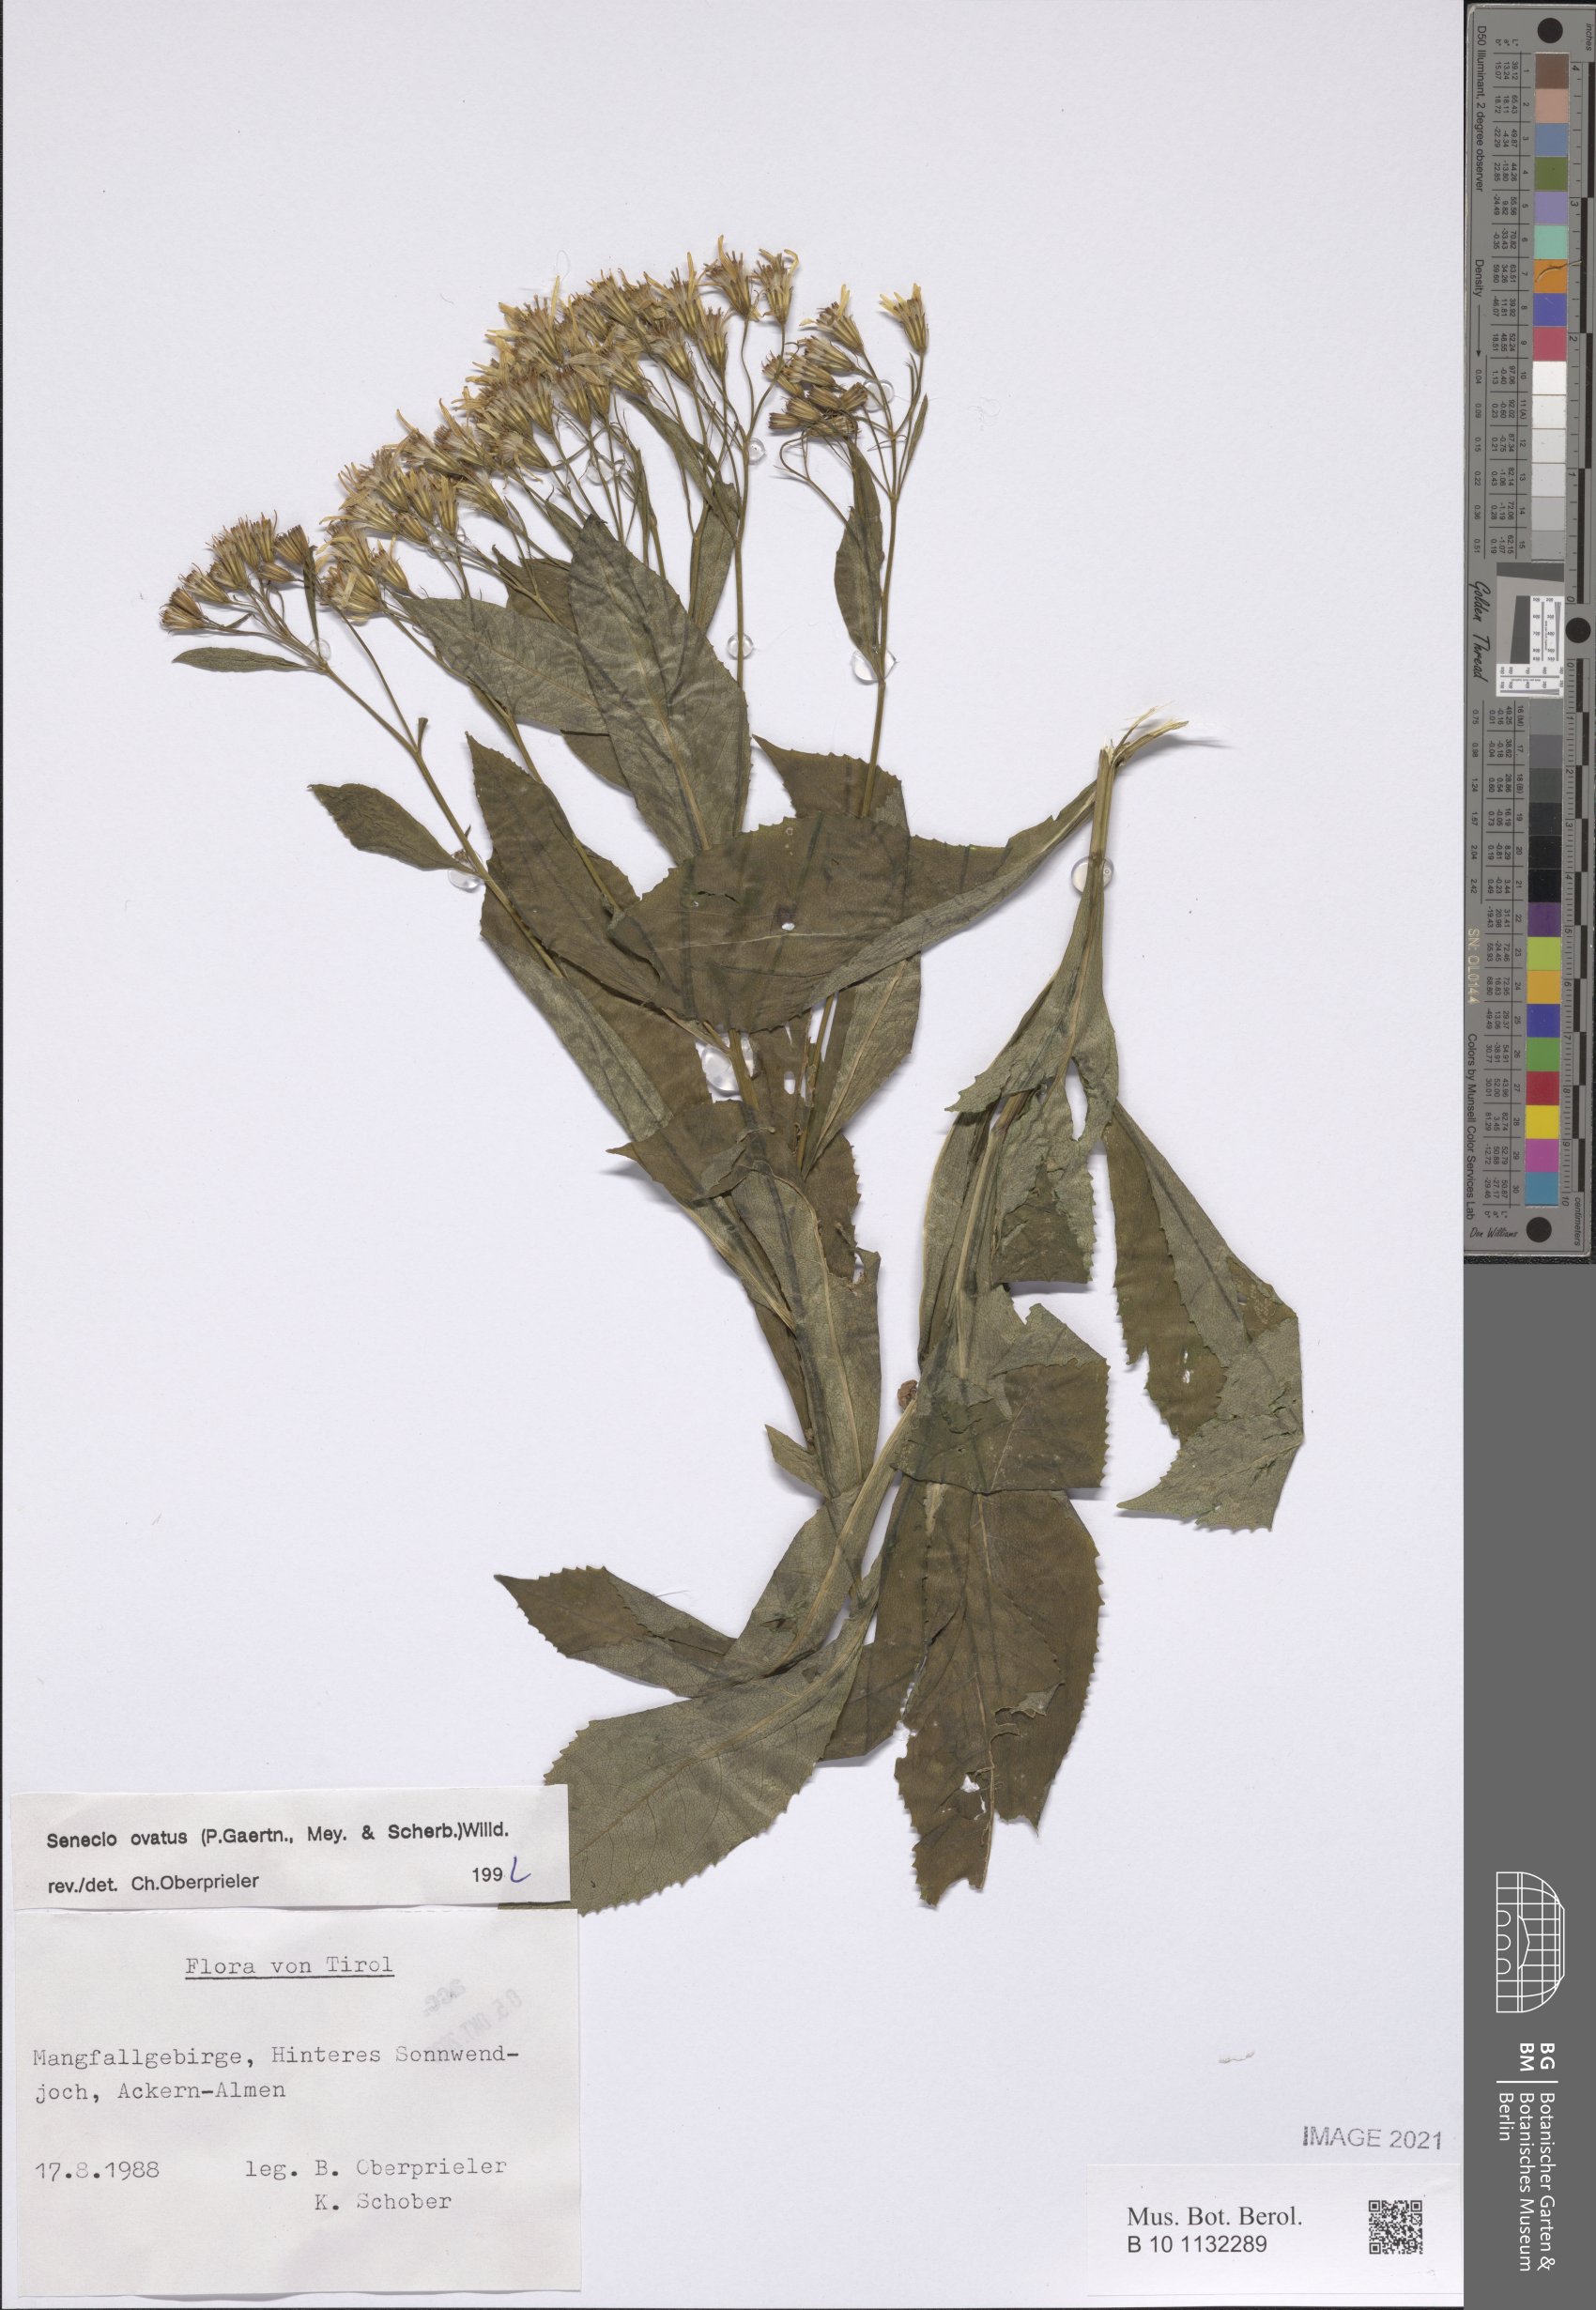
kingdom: Plantae
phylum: Tracheophyta
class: Magnoliopsida
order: Asterales
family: Asteraceae
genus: Senecio
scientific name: Senecio ovatus
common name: Wood ragwort
